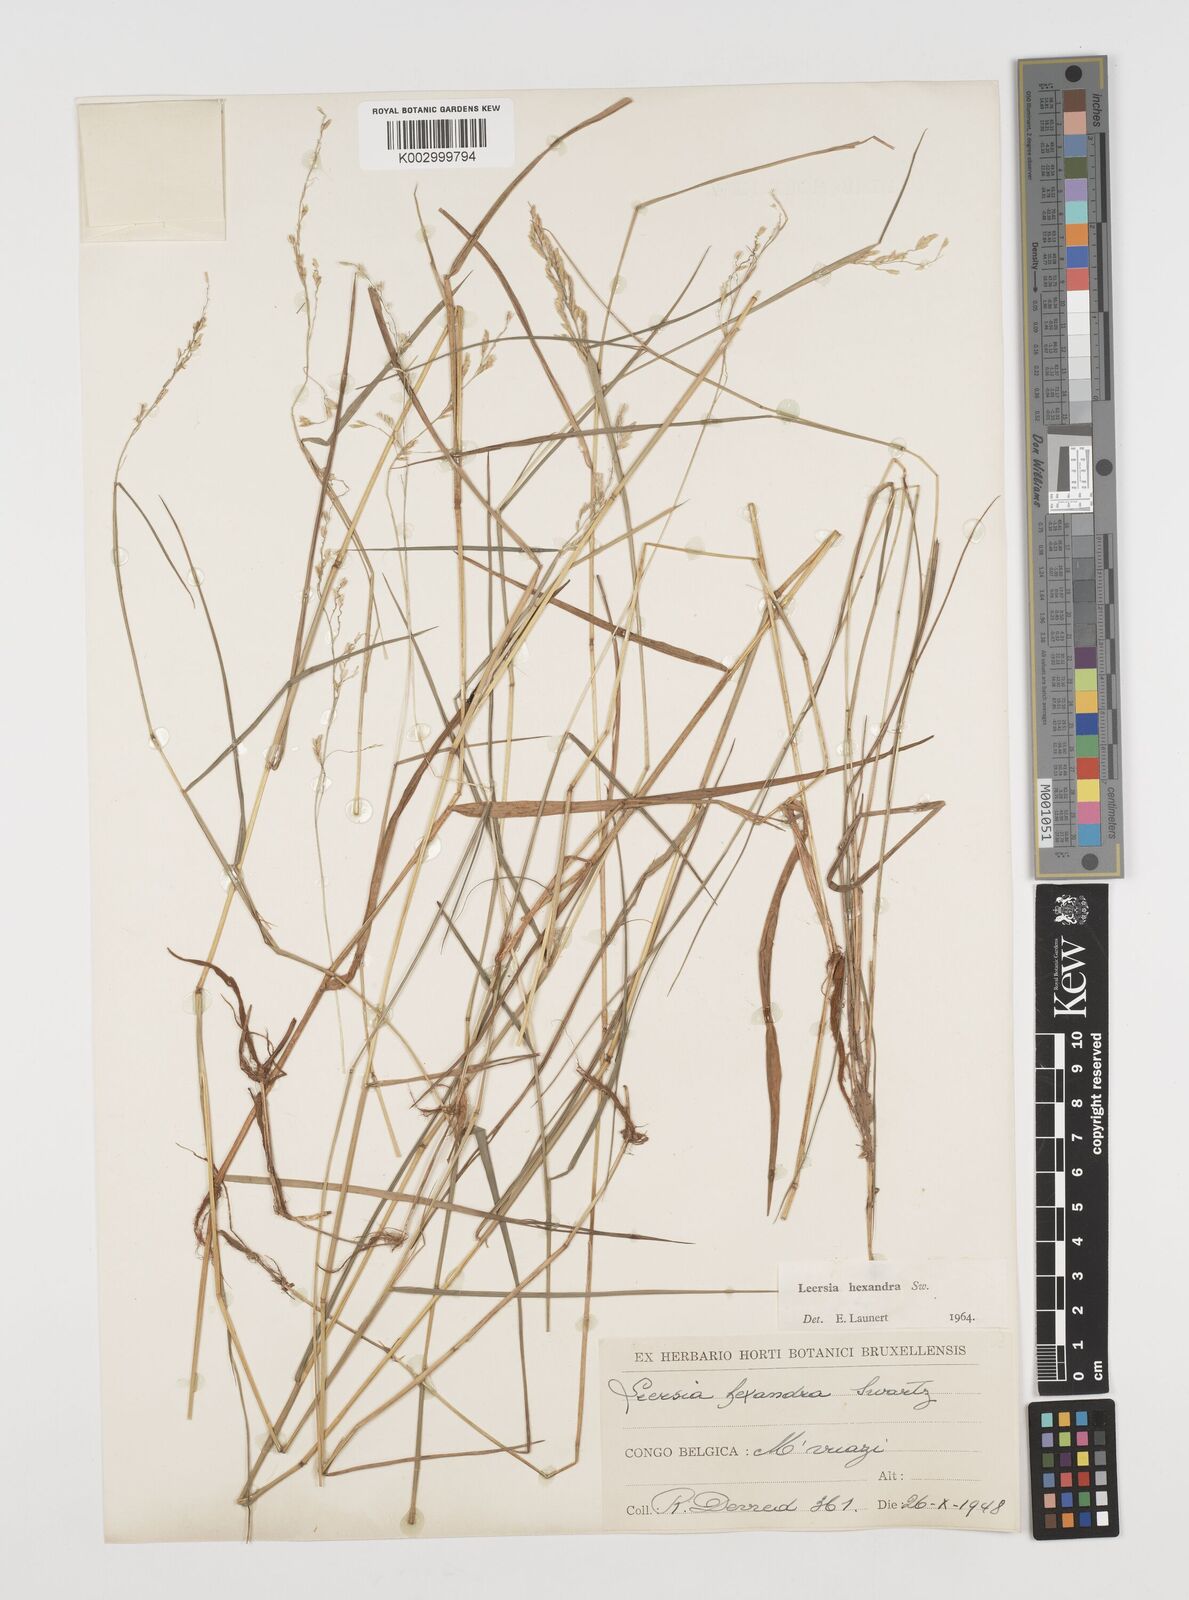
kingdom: Plantae
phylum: Tracheophyta
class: Liliopsida
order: Poales
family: Poaceae
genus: Leersia
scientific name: Leersia hexandra
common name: Southern cut grass
